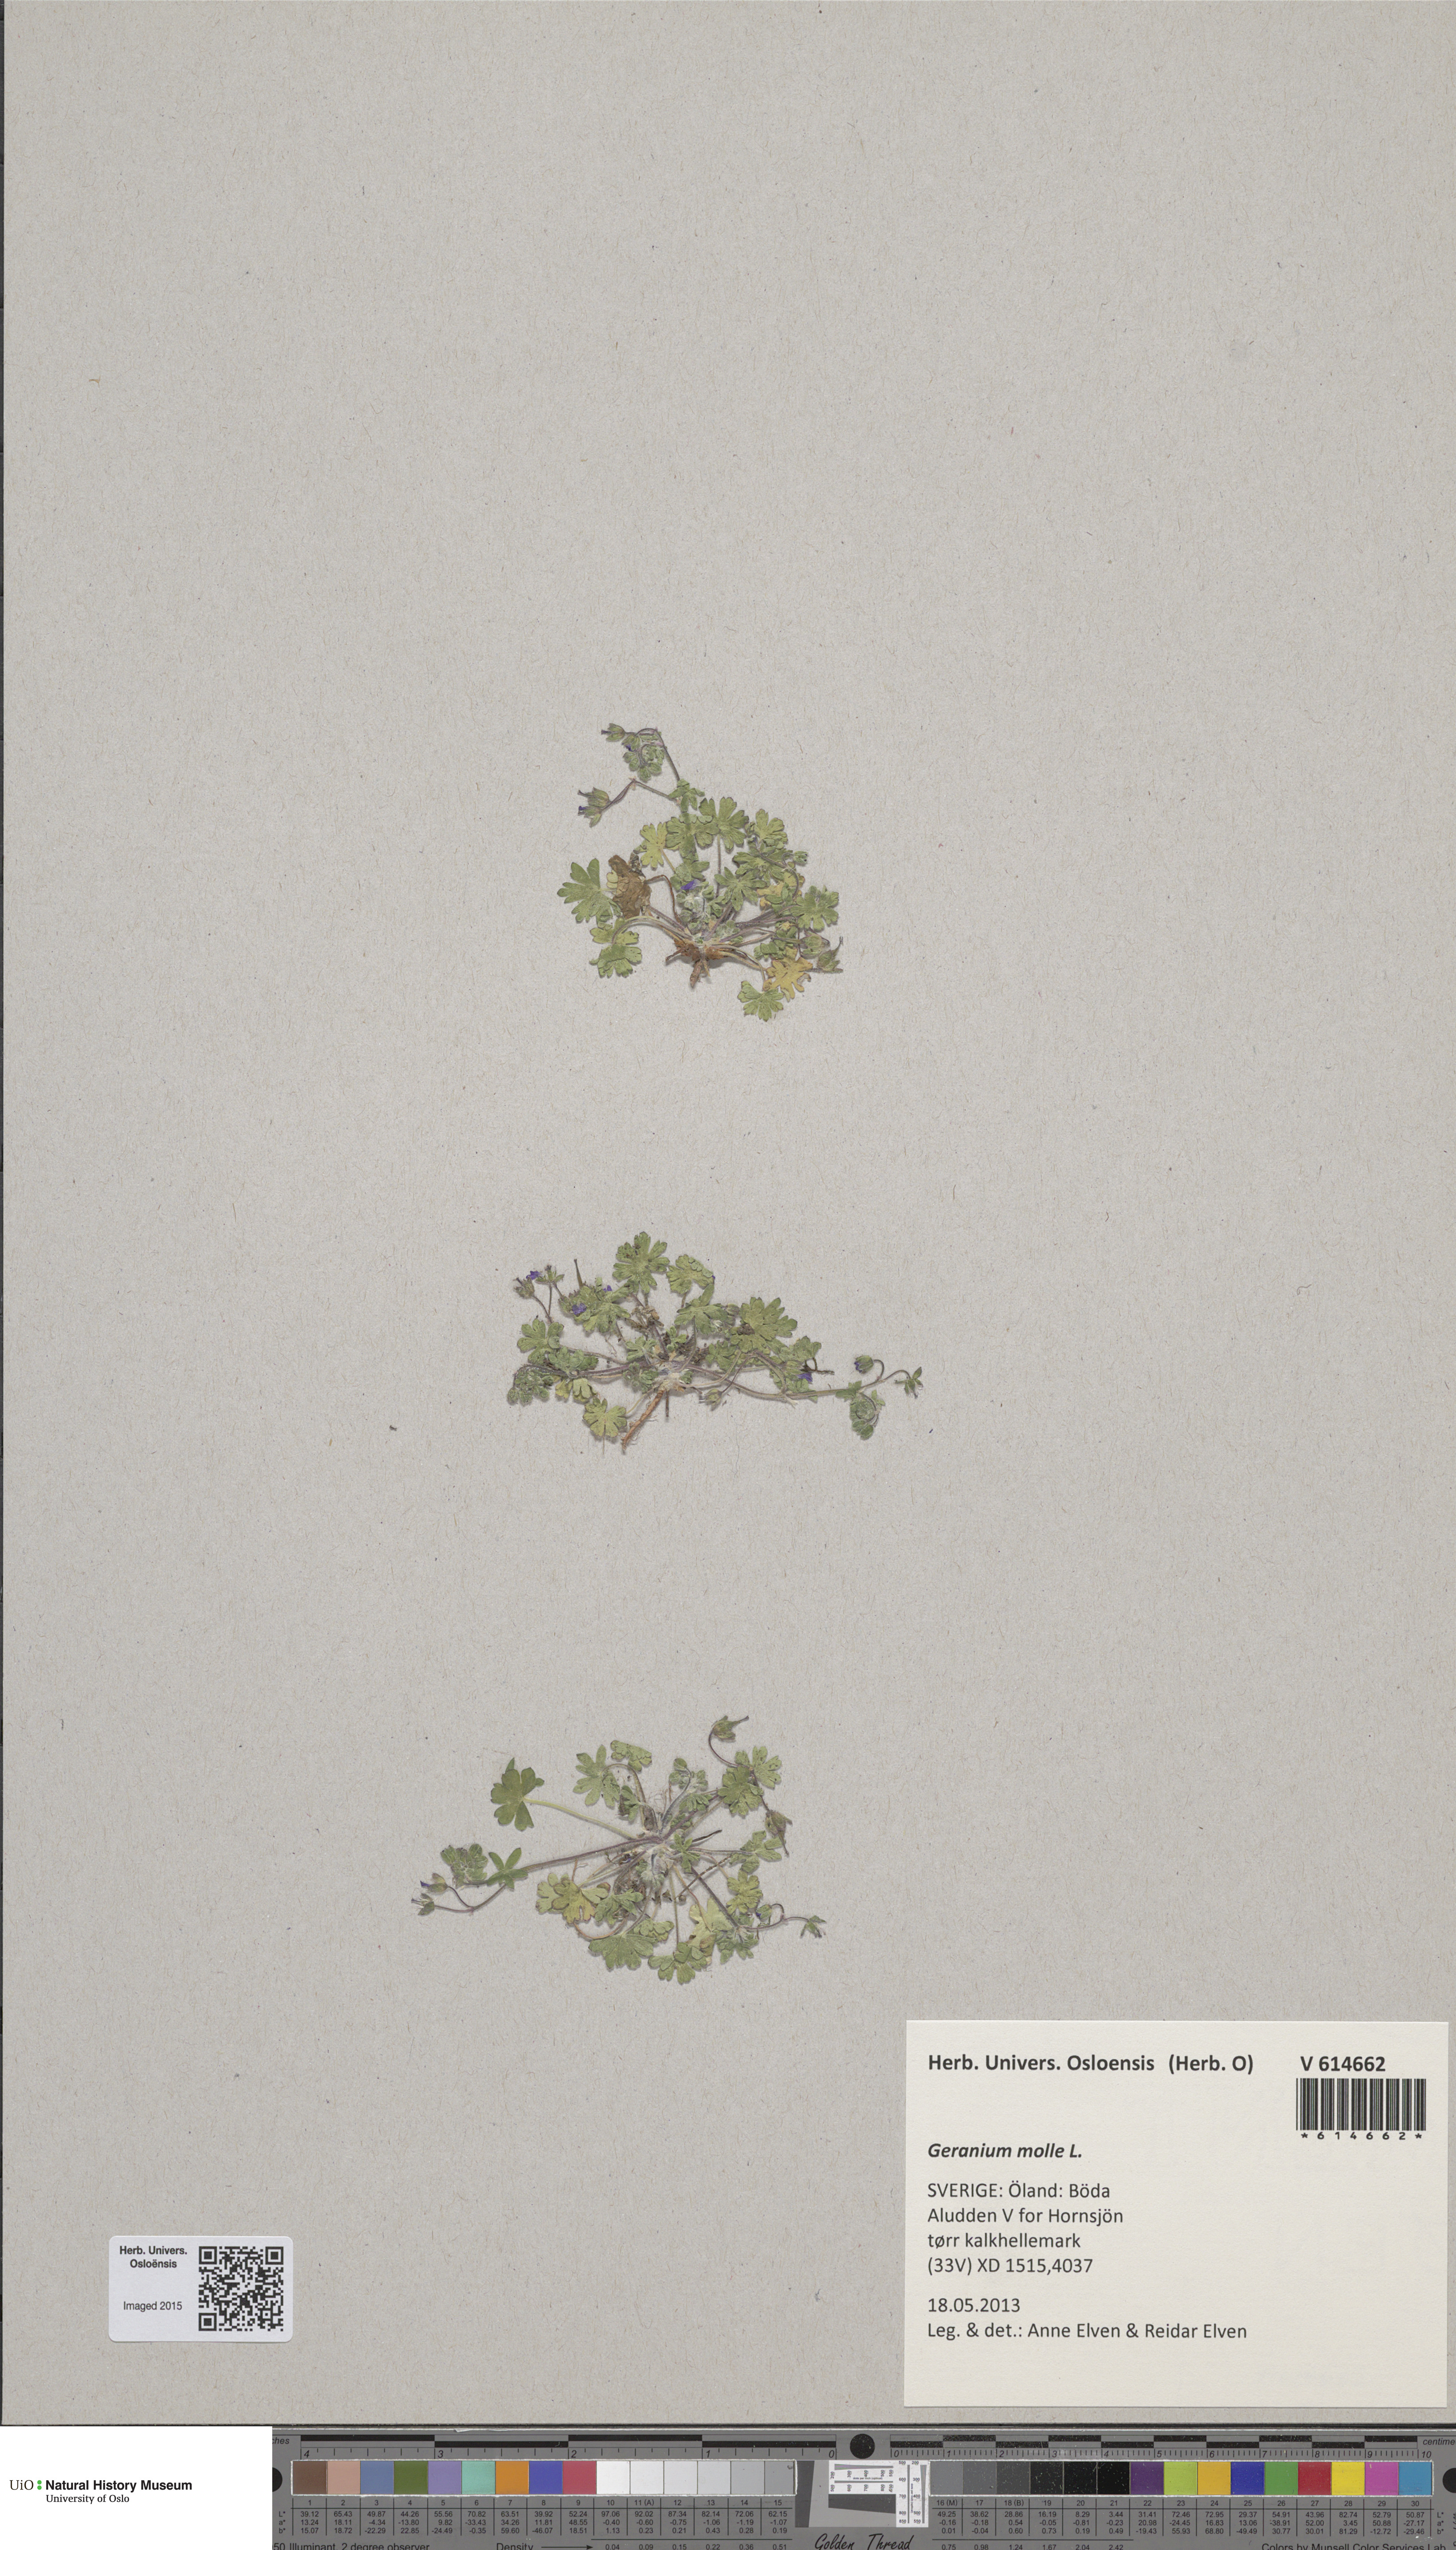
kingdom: Plantae
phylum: Tracheophyta
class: Magnoliopsida
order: Geraniales
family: Geraniaceae
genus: Geranium
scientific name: Geranium molle
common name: Dove's-foot crane's-bill
